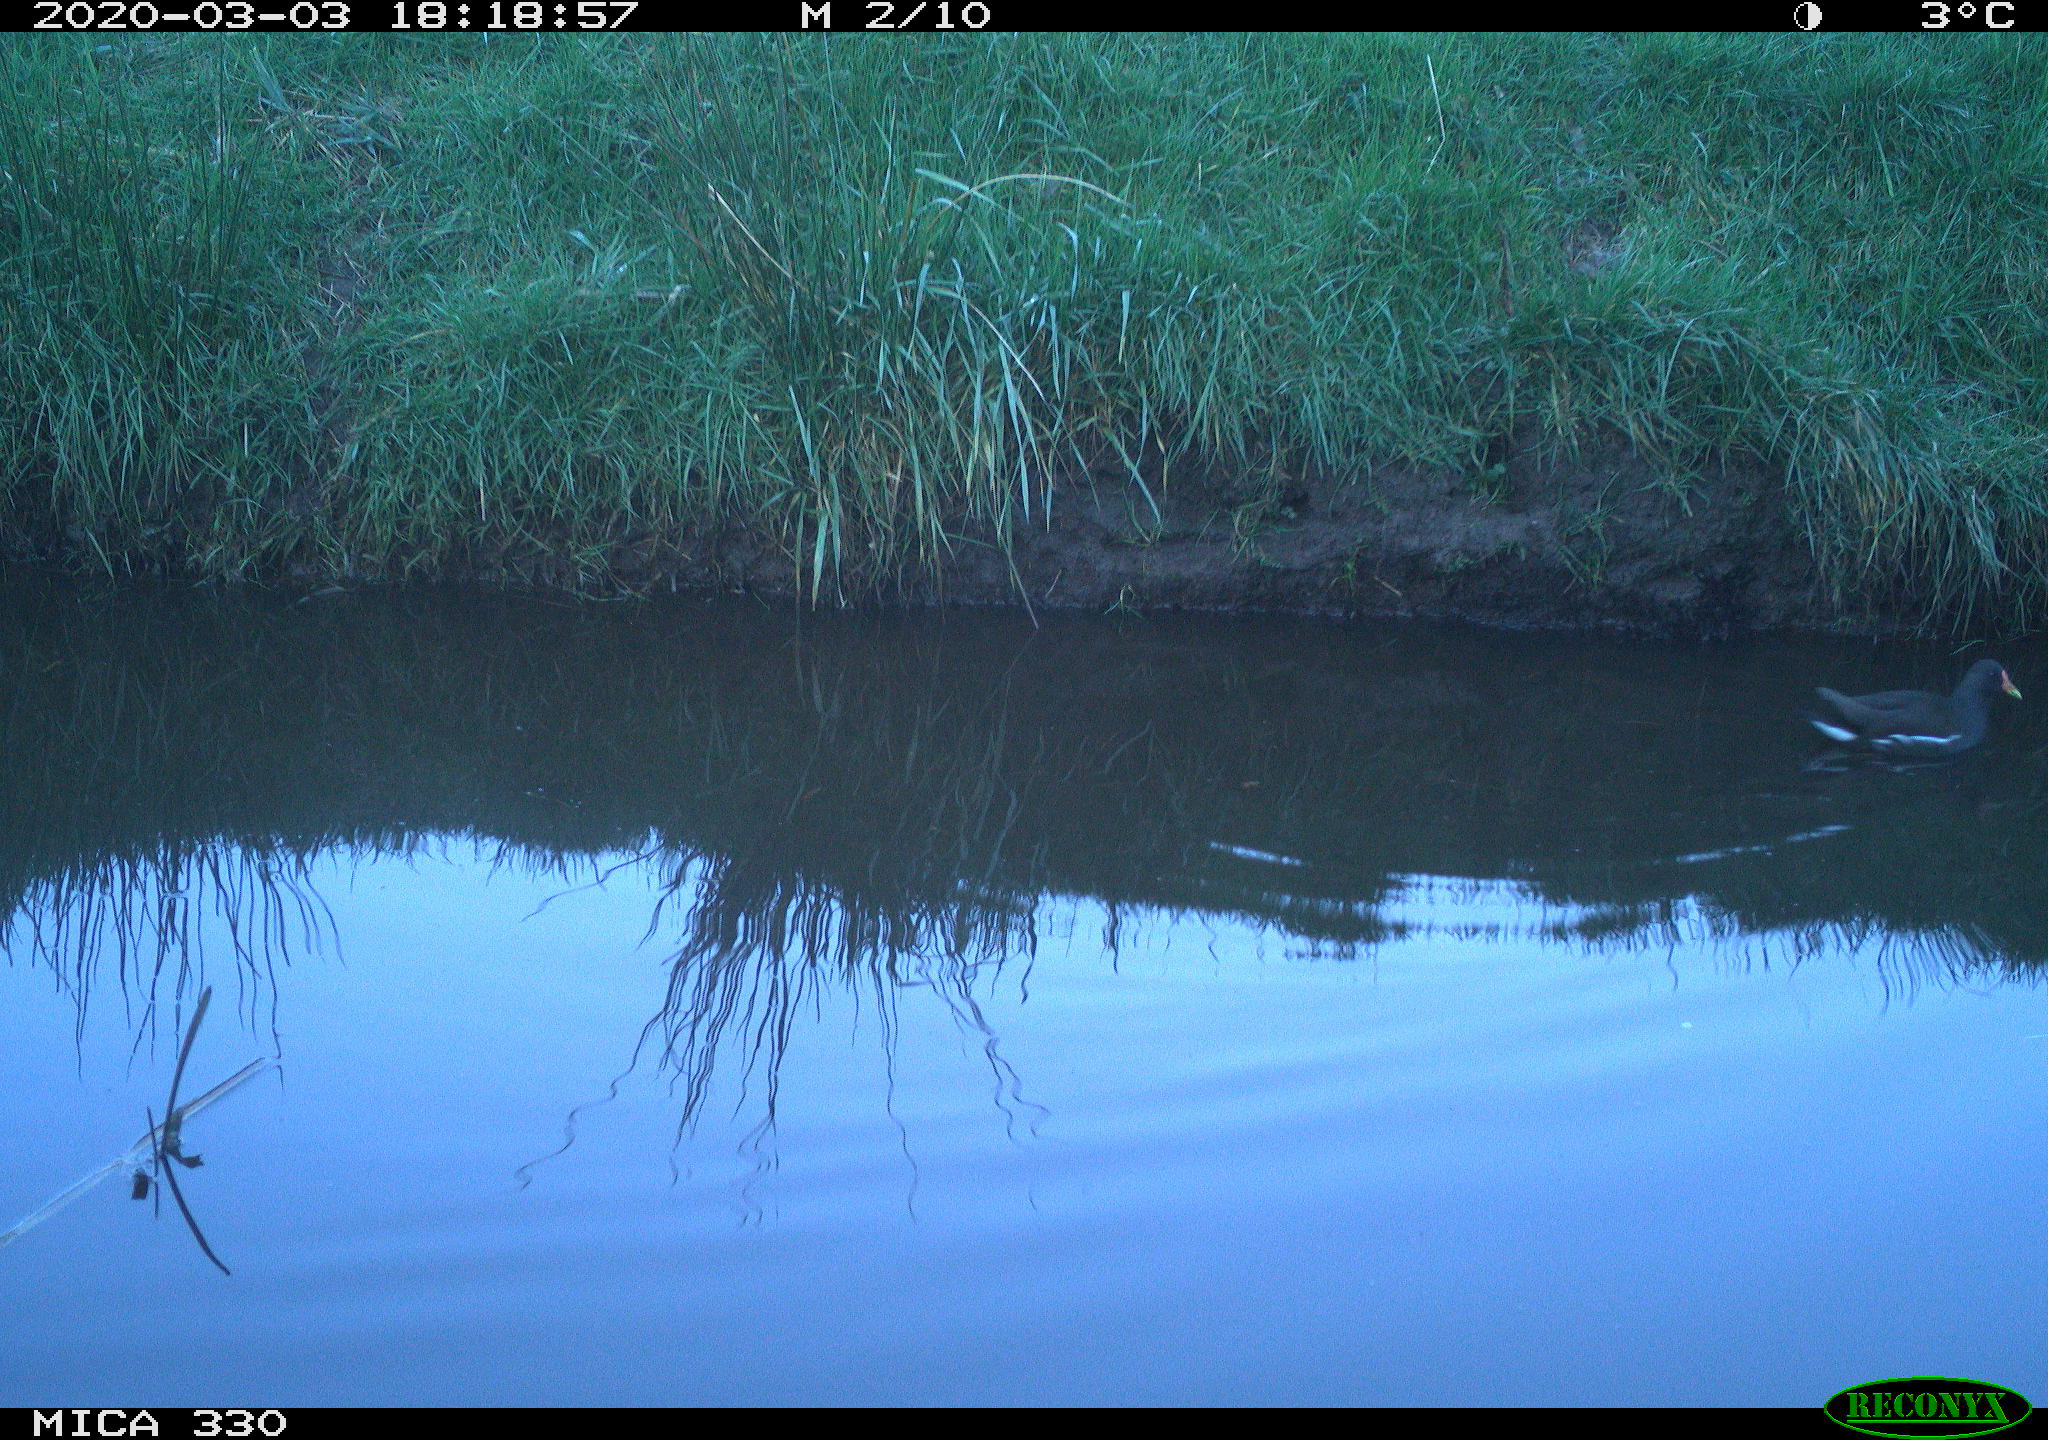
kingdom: Animalia
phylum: Chordata
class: Aves
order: Gruiformes
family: Rallidae
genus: Gallinula
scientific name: Gallinula chloropus
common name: Common moorhen
